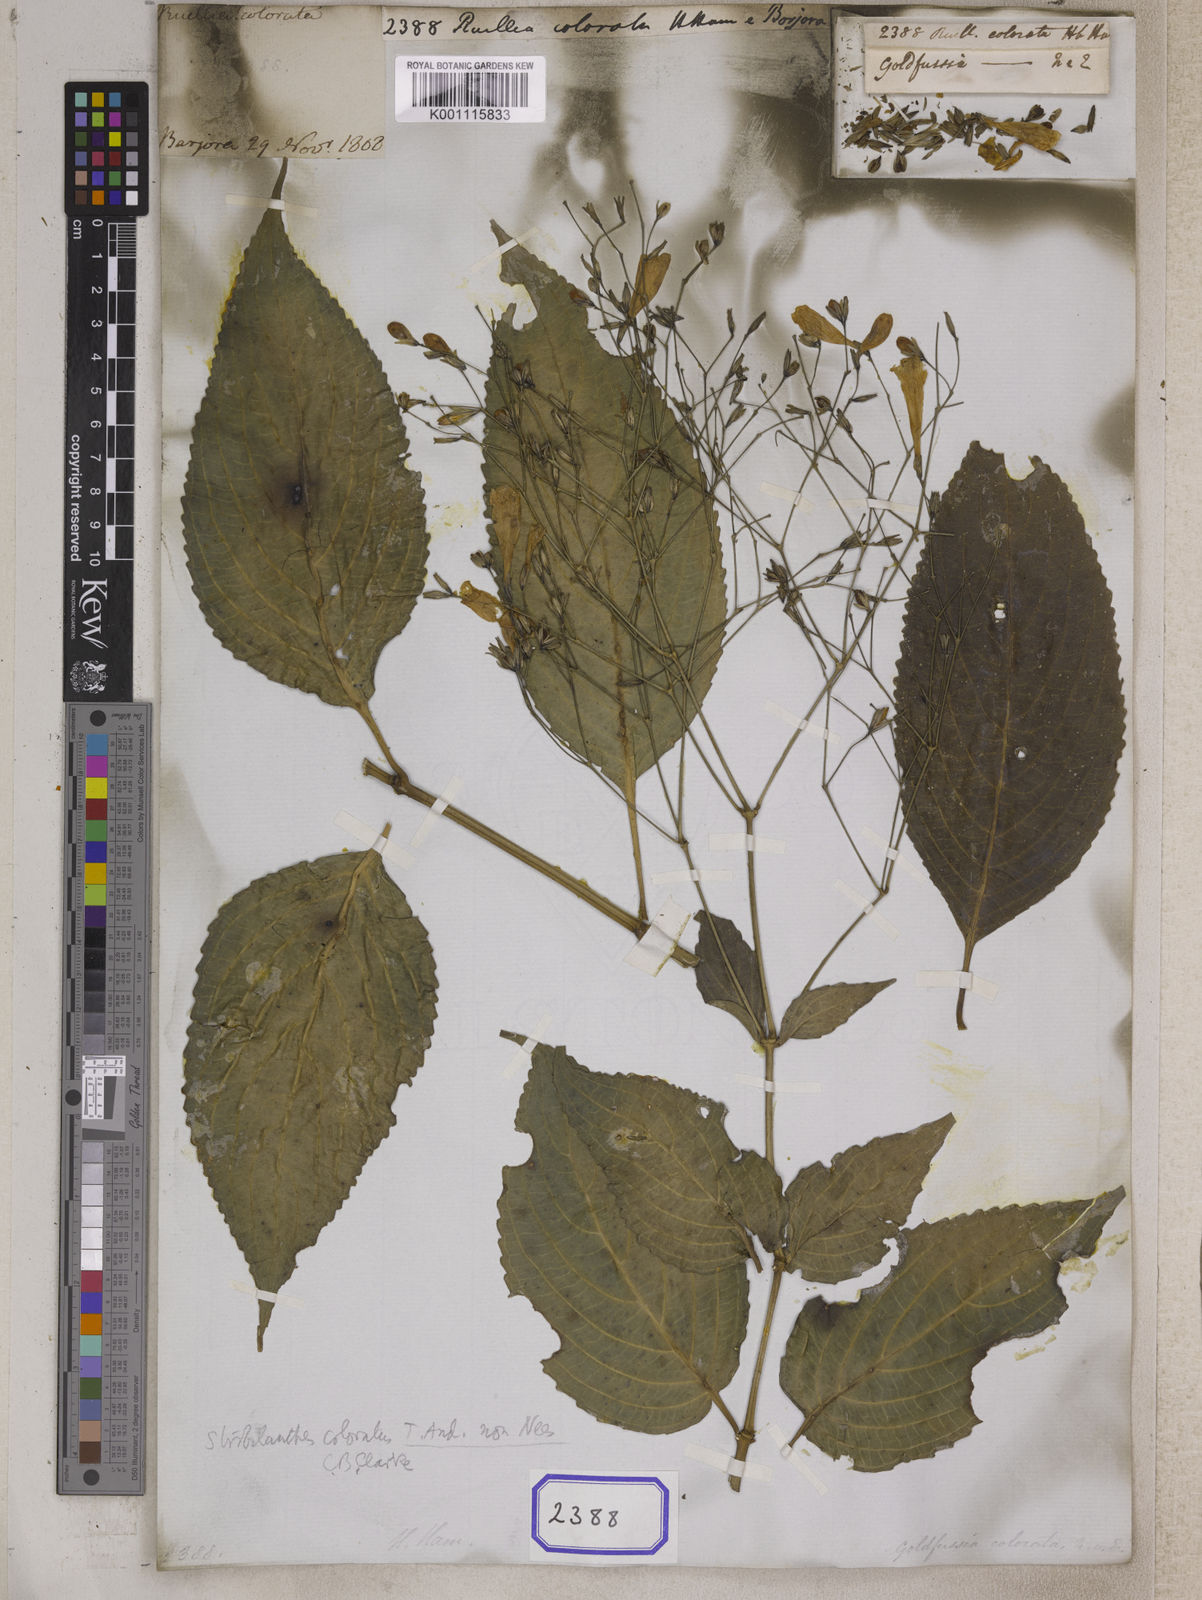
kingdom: Plantae
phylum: Tracheophyta
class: Magnoliopsida
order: Lamiales
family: Acanthaceae
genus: Strobilanthes
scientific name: Strobilanthes hamiltoniana
